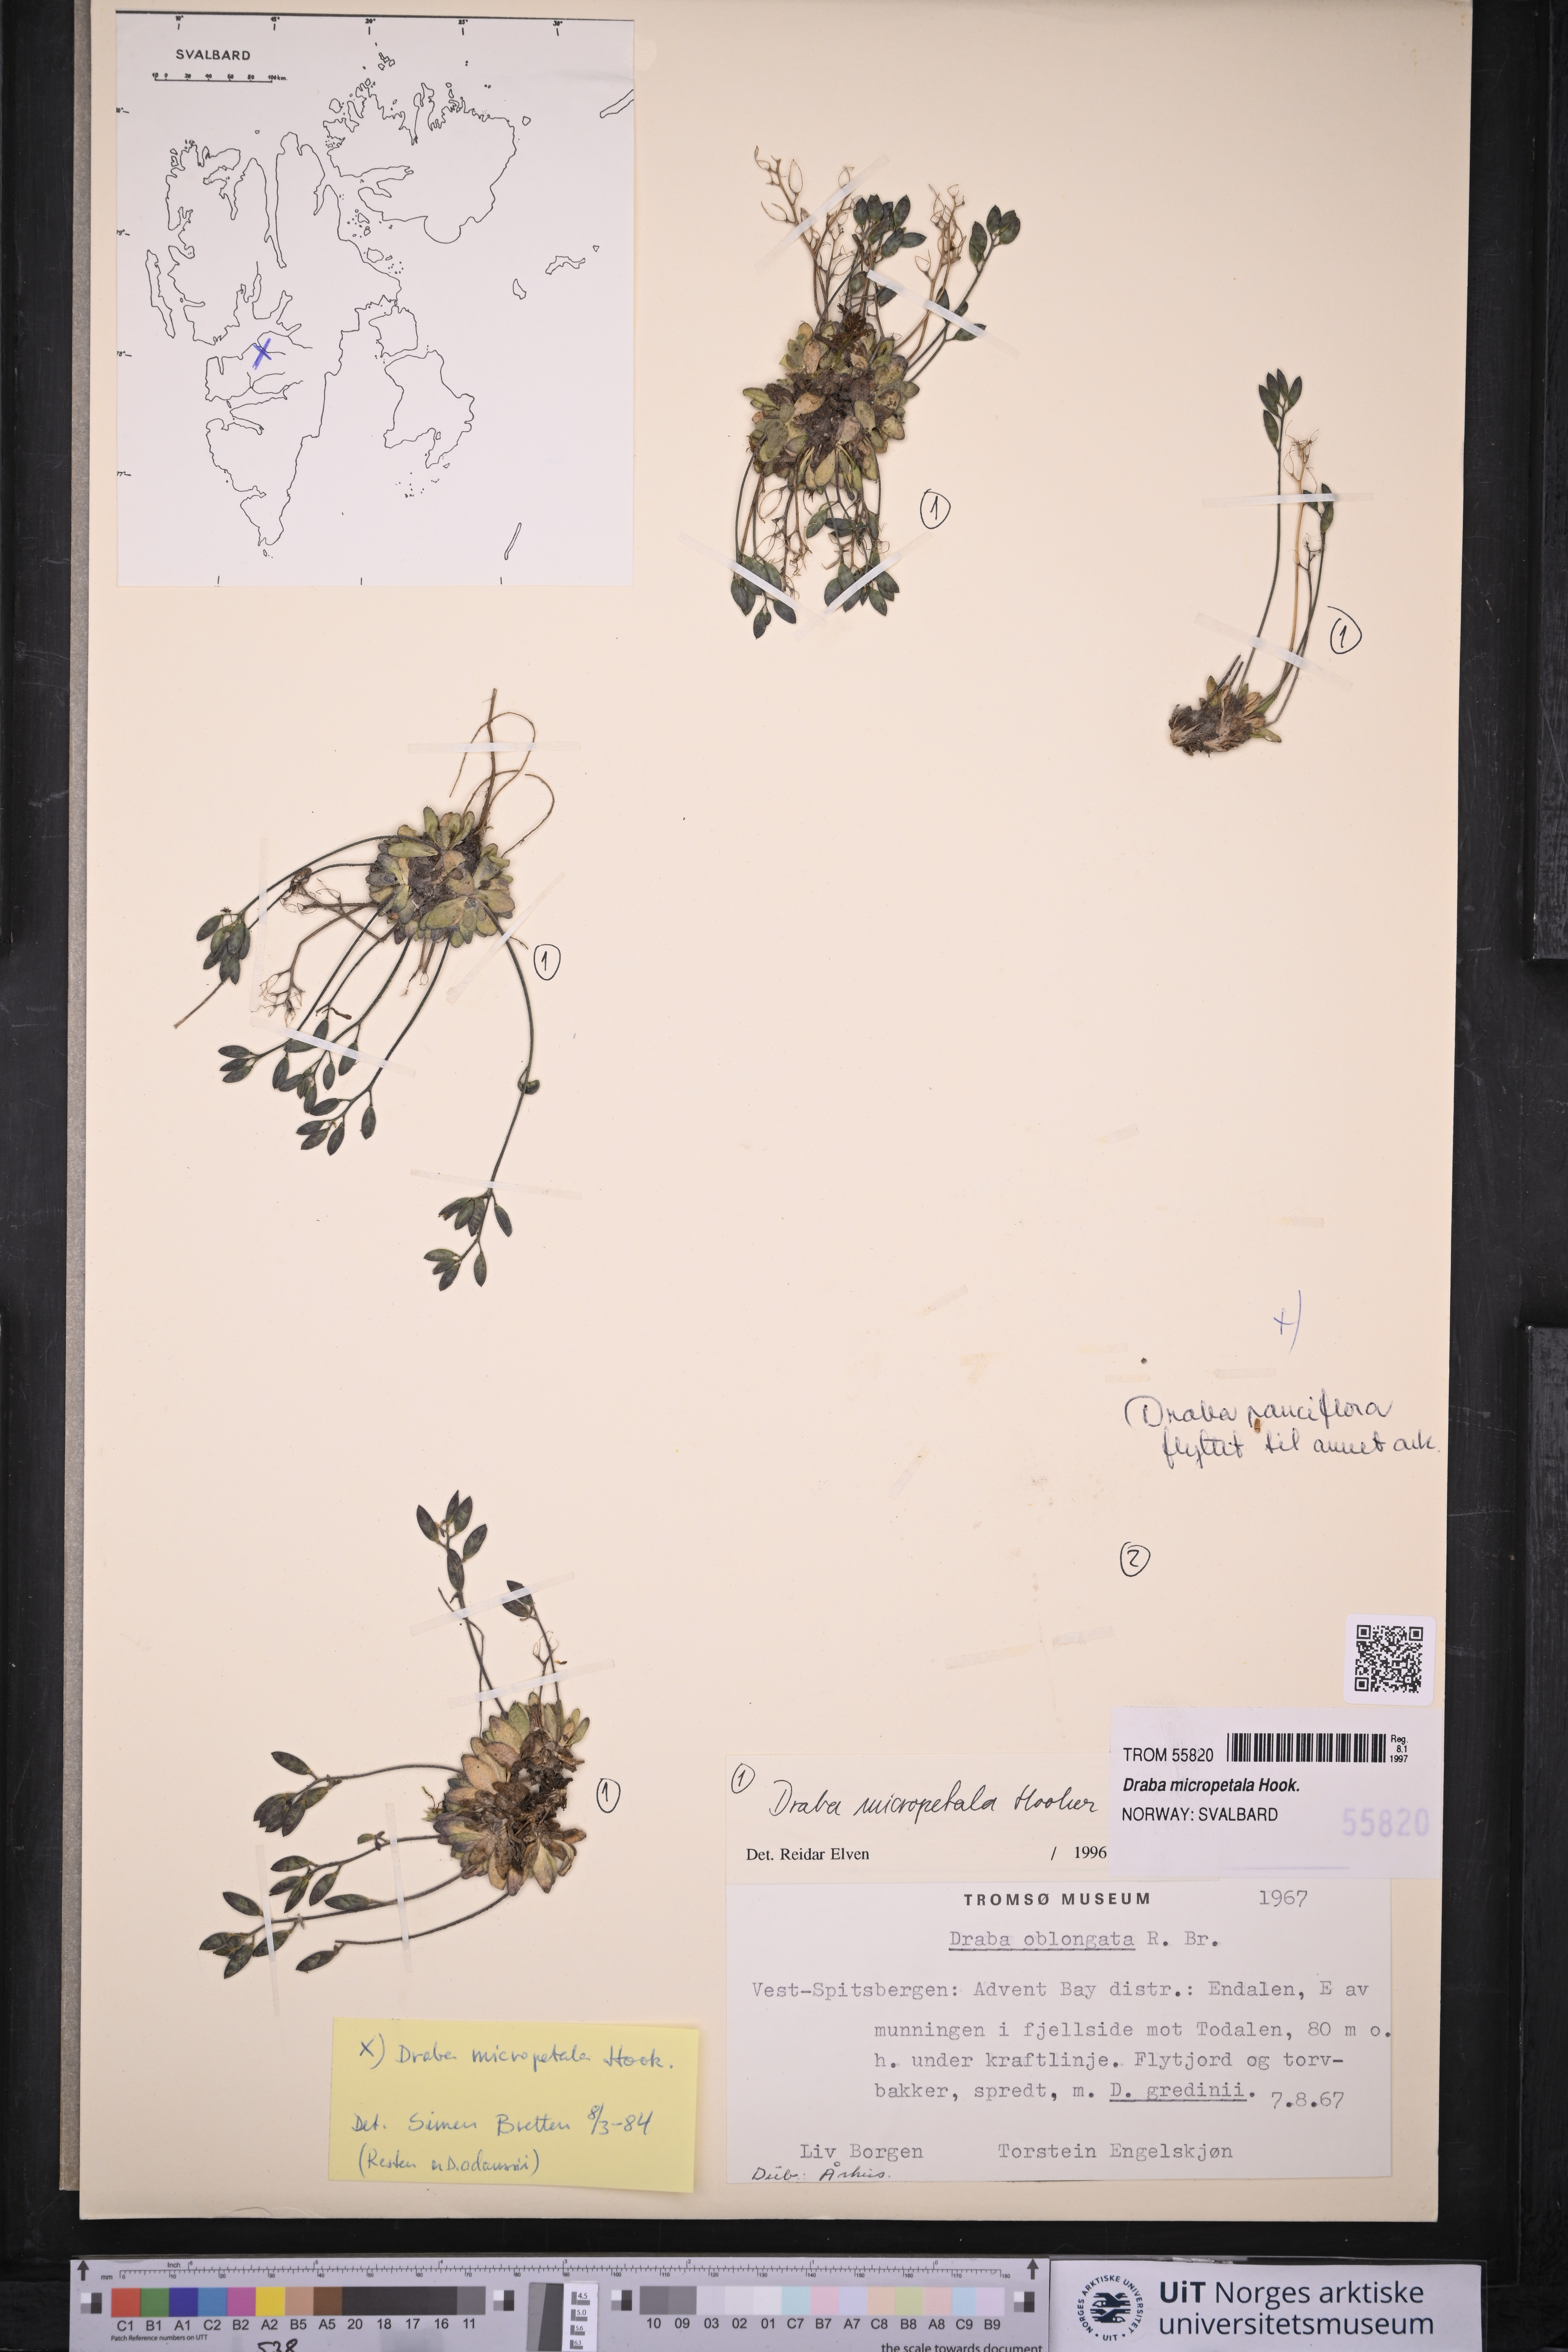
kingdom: Plantae
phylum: Tracheophyta
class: Magnoliopsida
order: Brassicales
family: Brassicaceae
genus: Draba
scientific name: Draba micropetala
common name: Small-flowered draba
